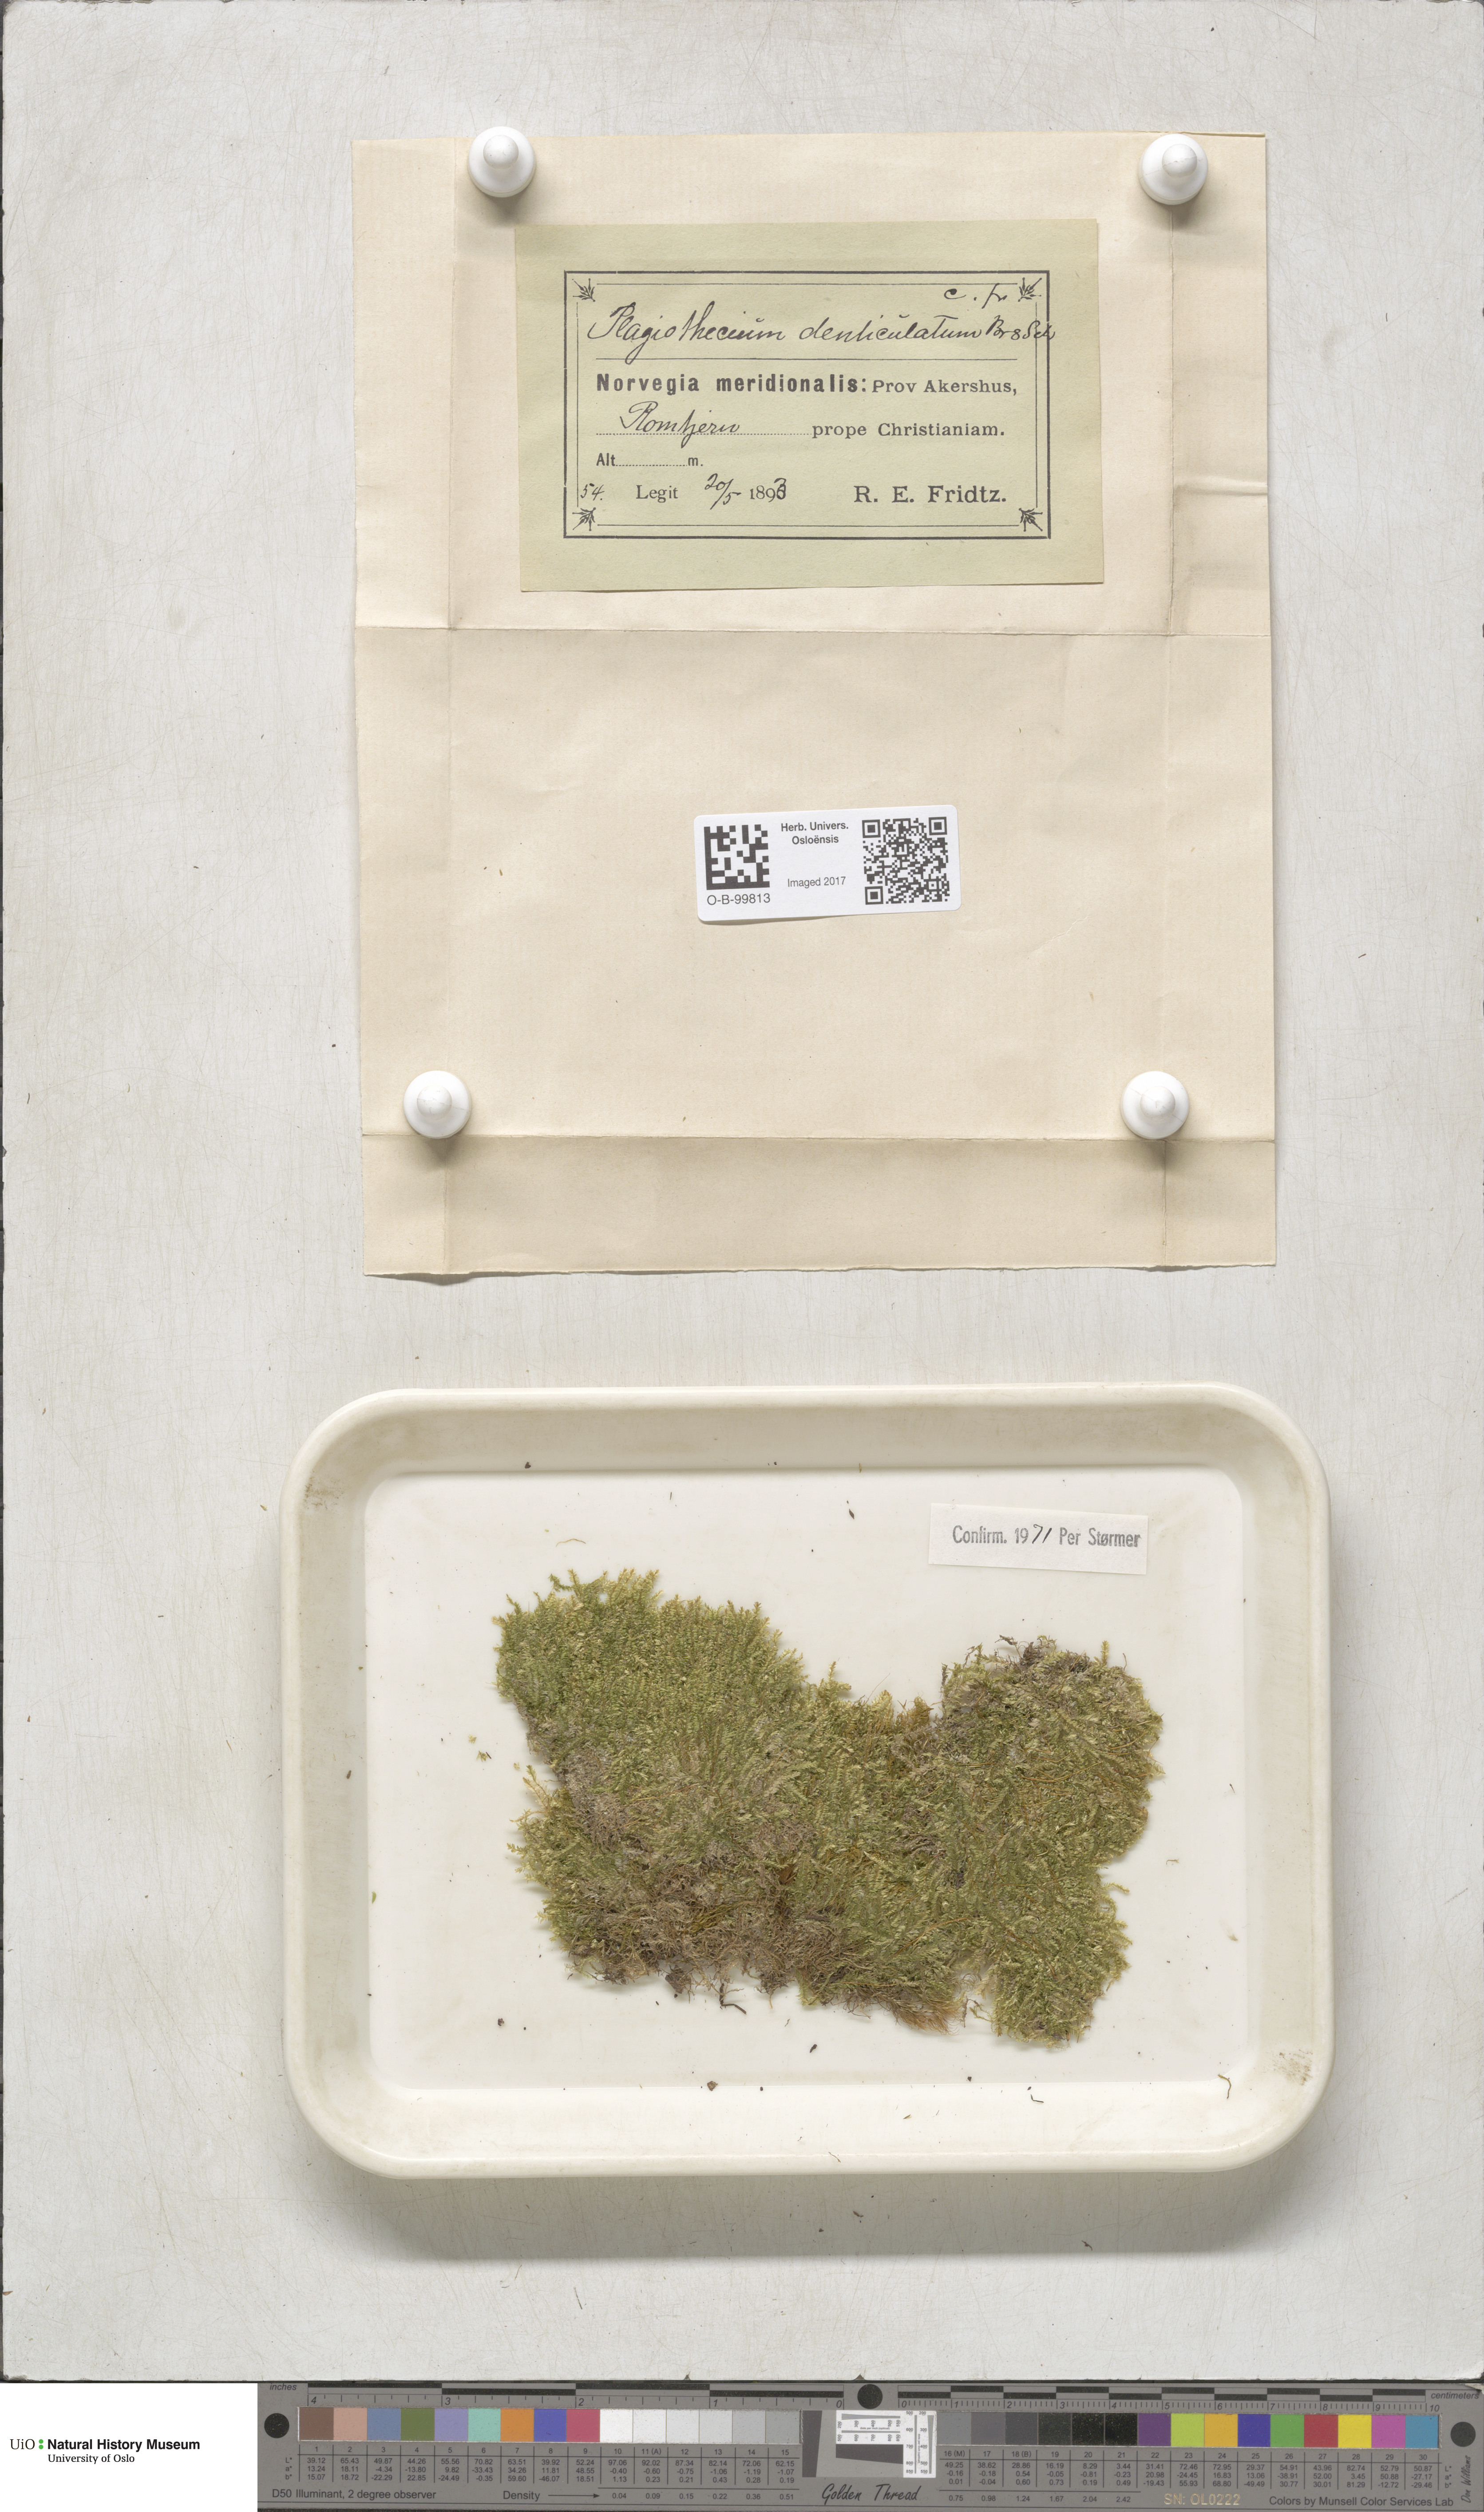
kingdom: Plantae
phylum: Bryophyta
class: Bryopsida
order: Hypnales
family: Plagiotheciaceae
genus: Plagiothecium
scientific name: Plagiothecium denticulatum
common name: Dented silk moss
